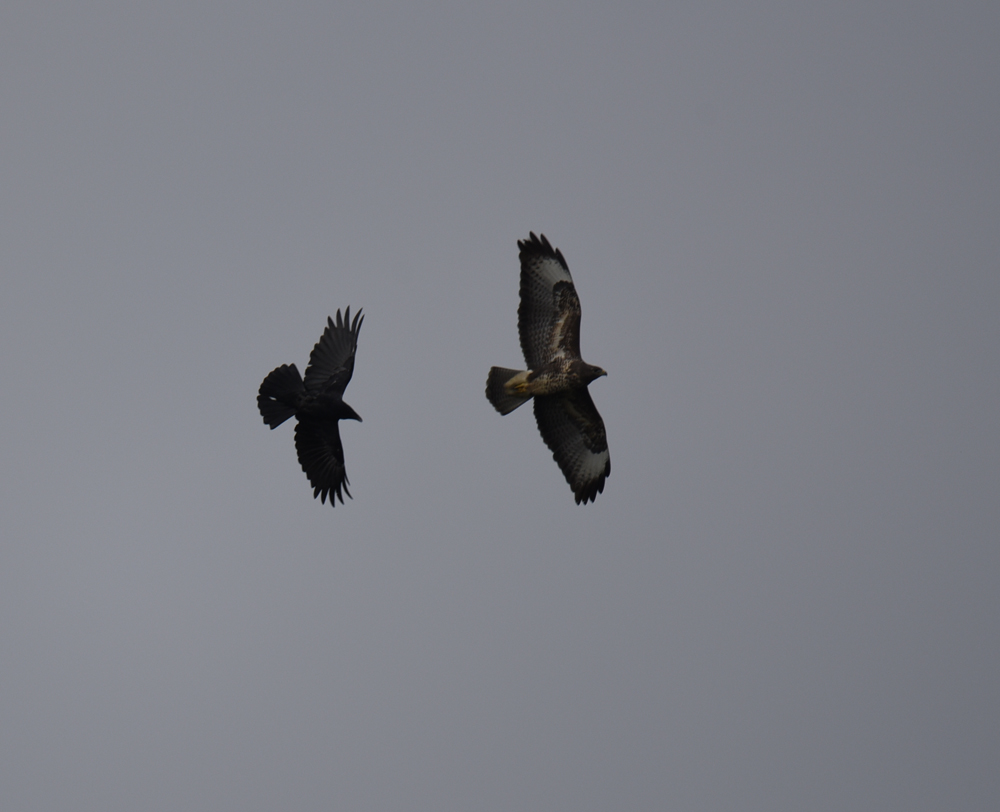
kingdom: Animalia
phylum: Chordata
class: Aves
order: Accipitriformes
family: Accipitridae
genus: Buteo
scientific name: Buteo buteo
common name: Common buzzard
